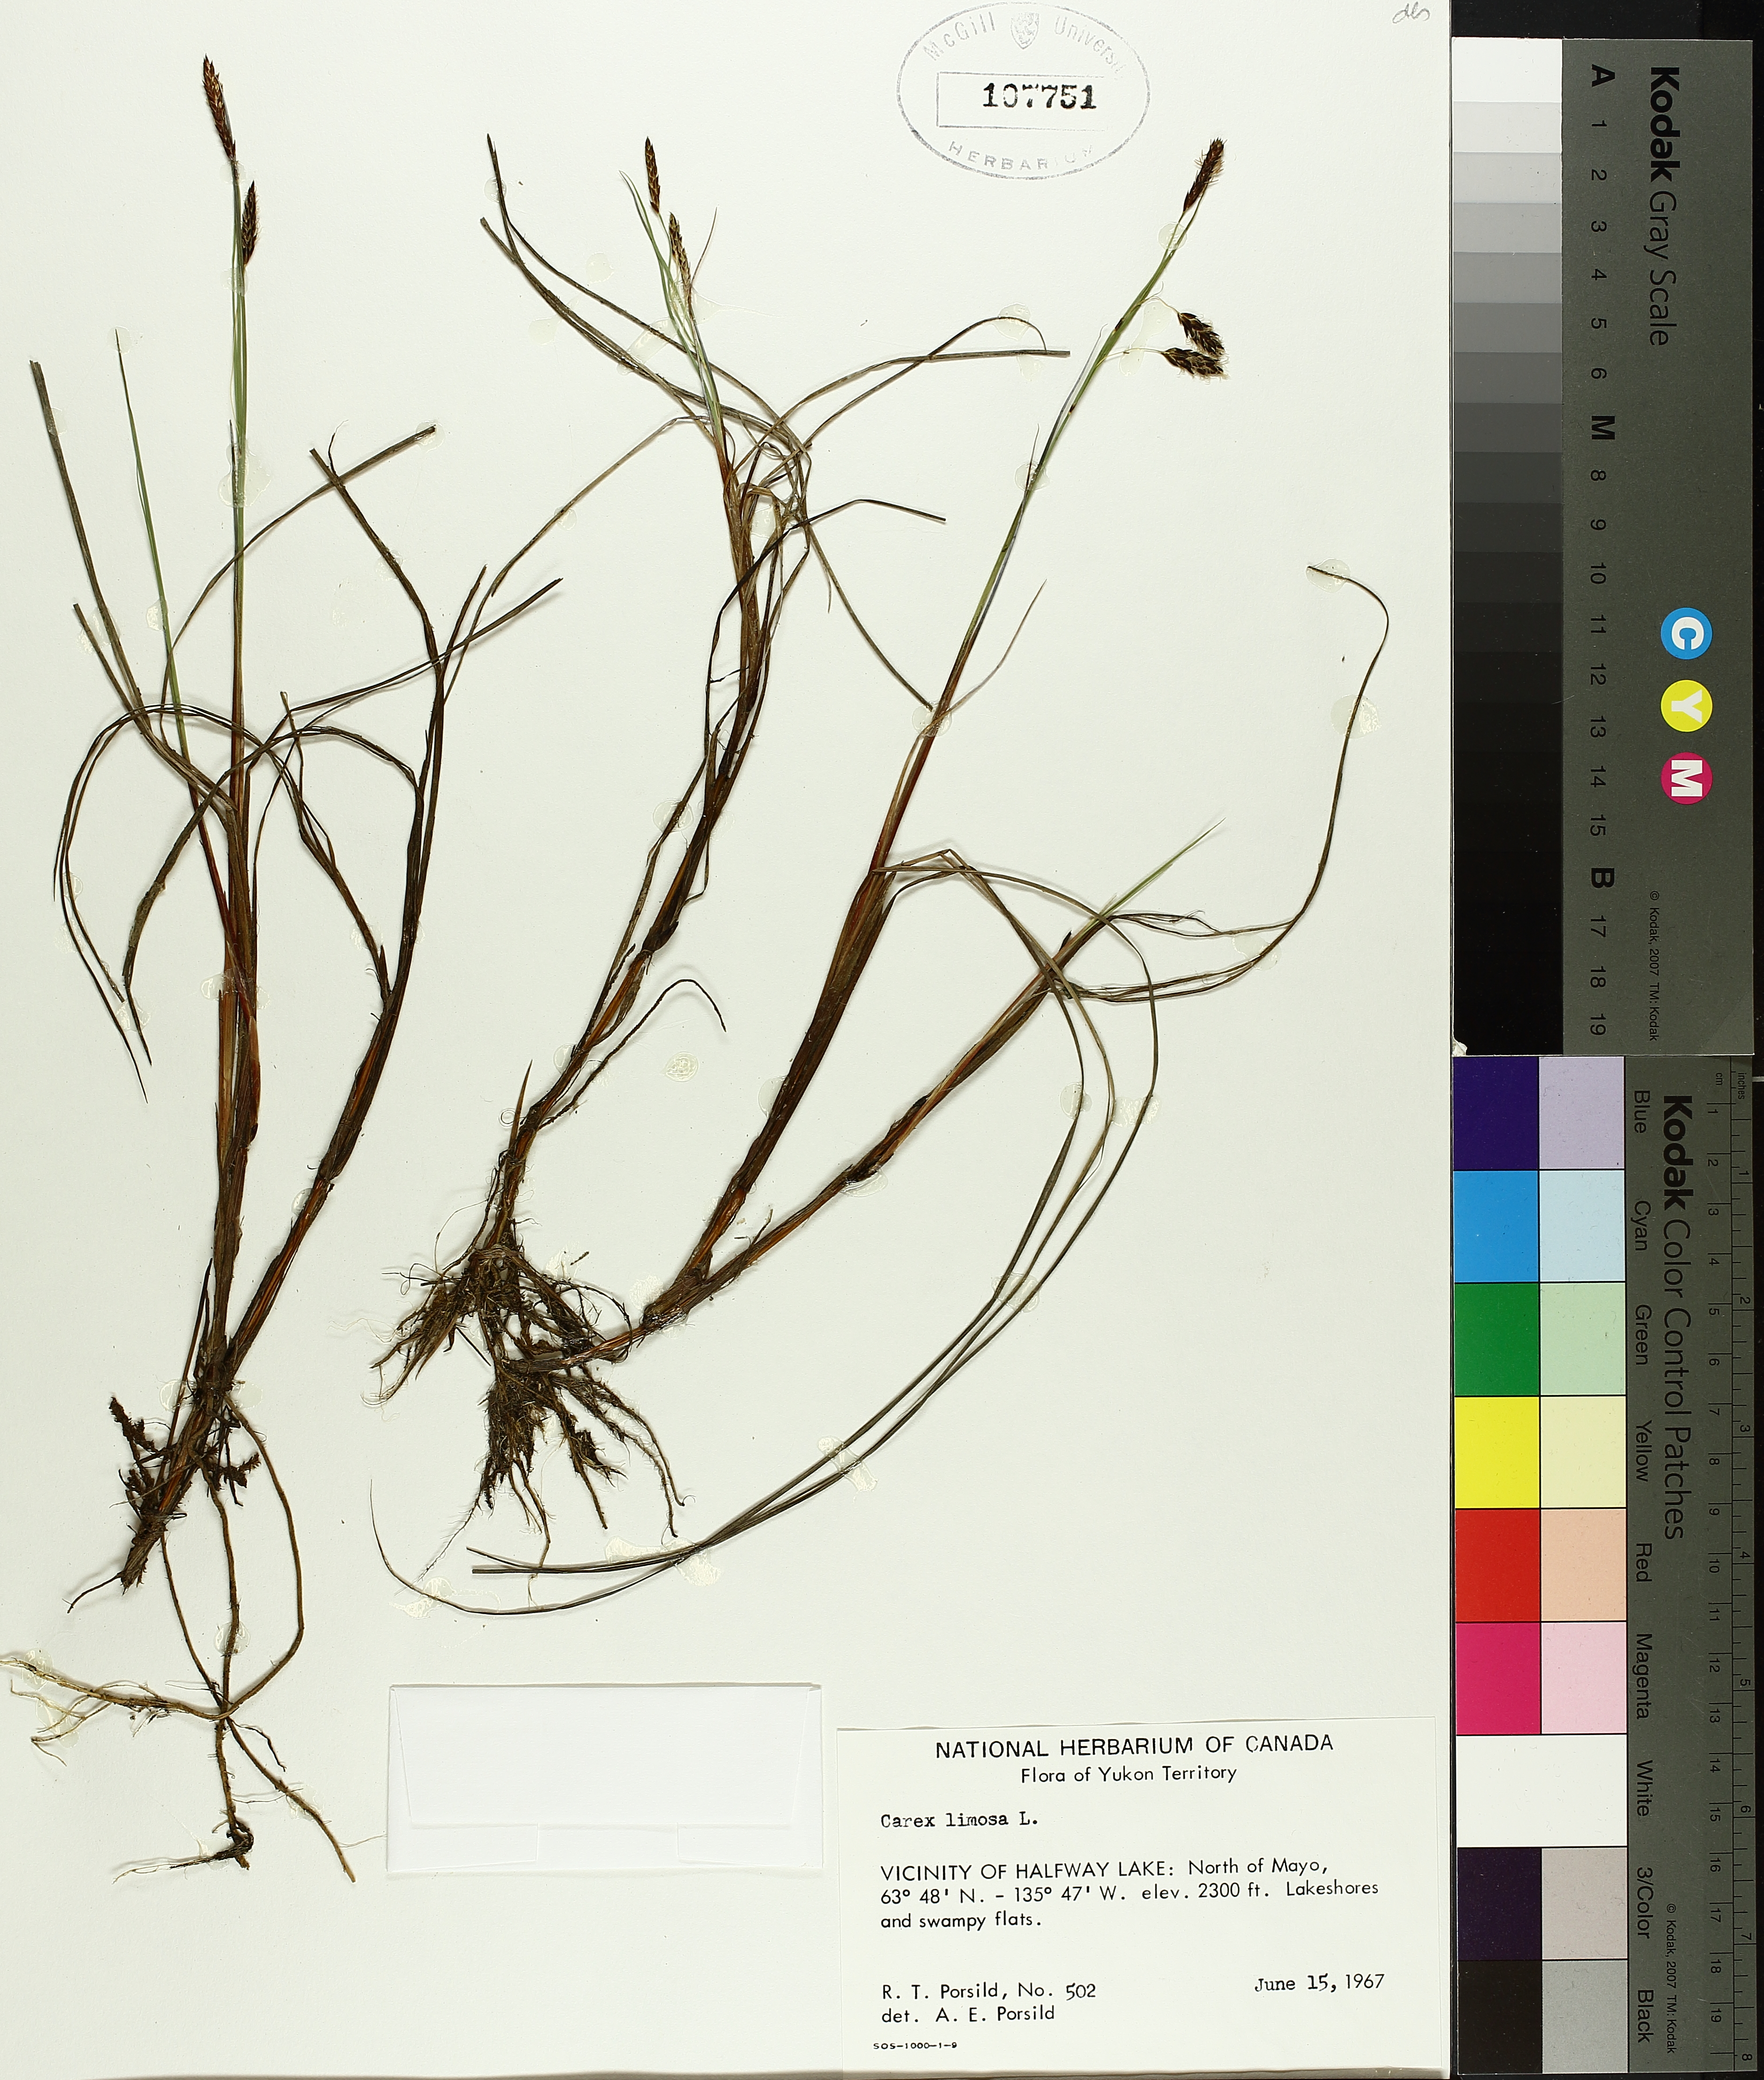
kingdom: Plantae
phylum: Tracheophyta
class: Liliopsida
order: Poales
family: Cyperaceae
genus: Carex
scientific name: Carex limosa
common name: Bog sedge
